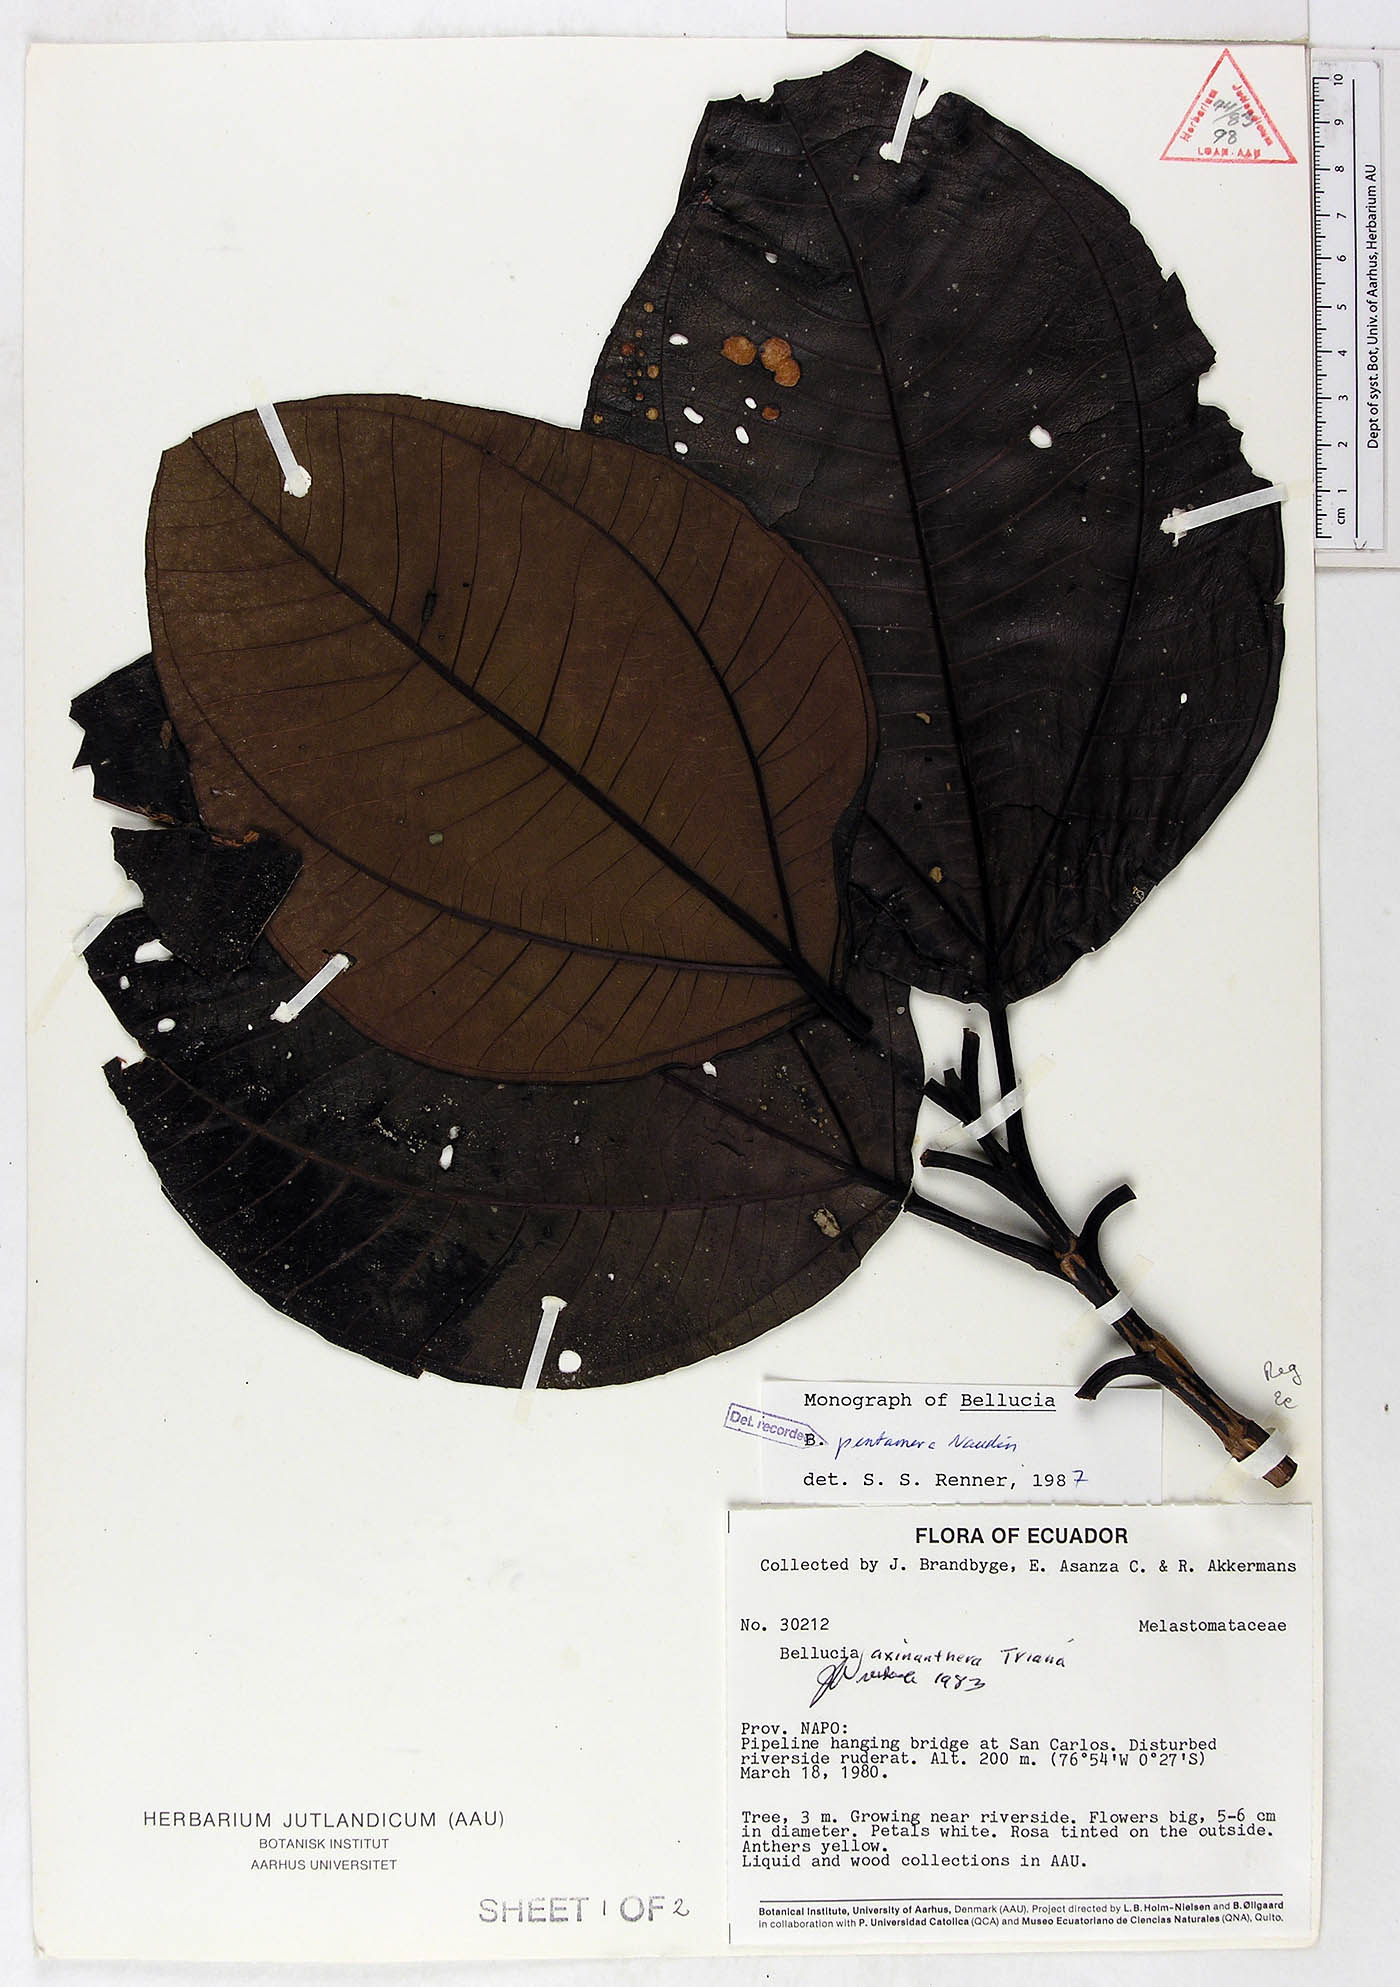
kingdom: Plantae
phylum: Tracheophyta
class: Magnoliopsida
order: Myrtales
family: Melastomataceae
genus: Bellucia
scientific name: Bellucia pentamera
